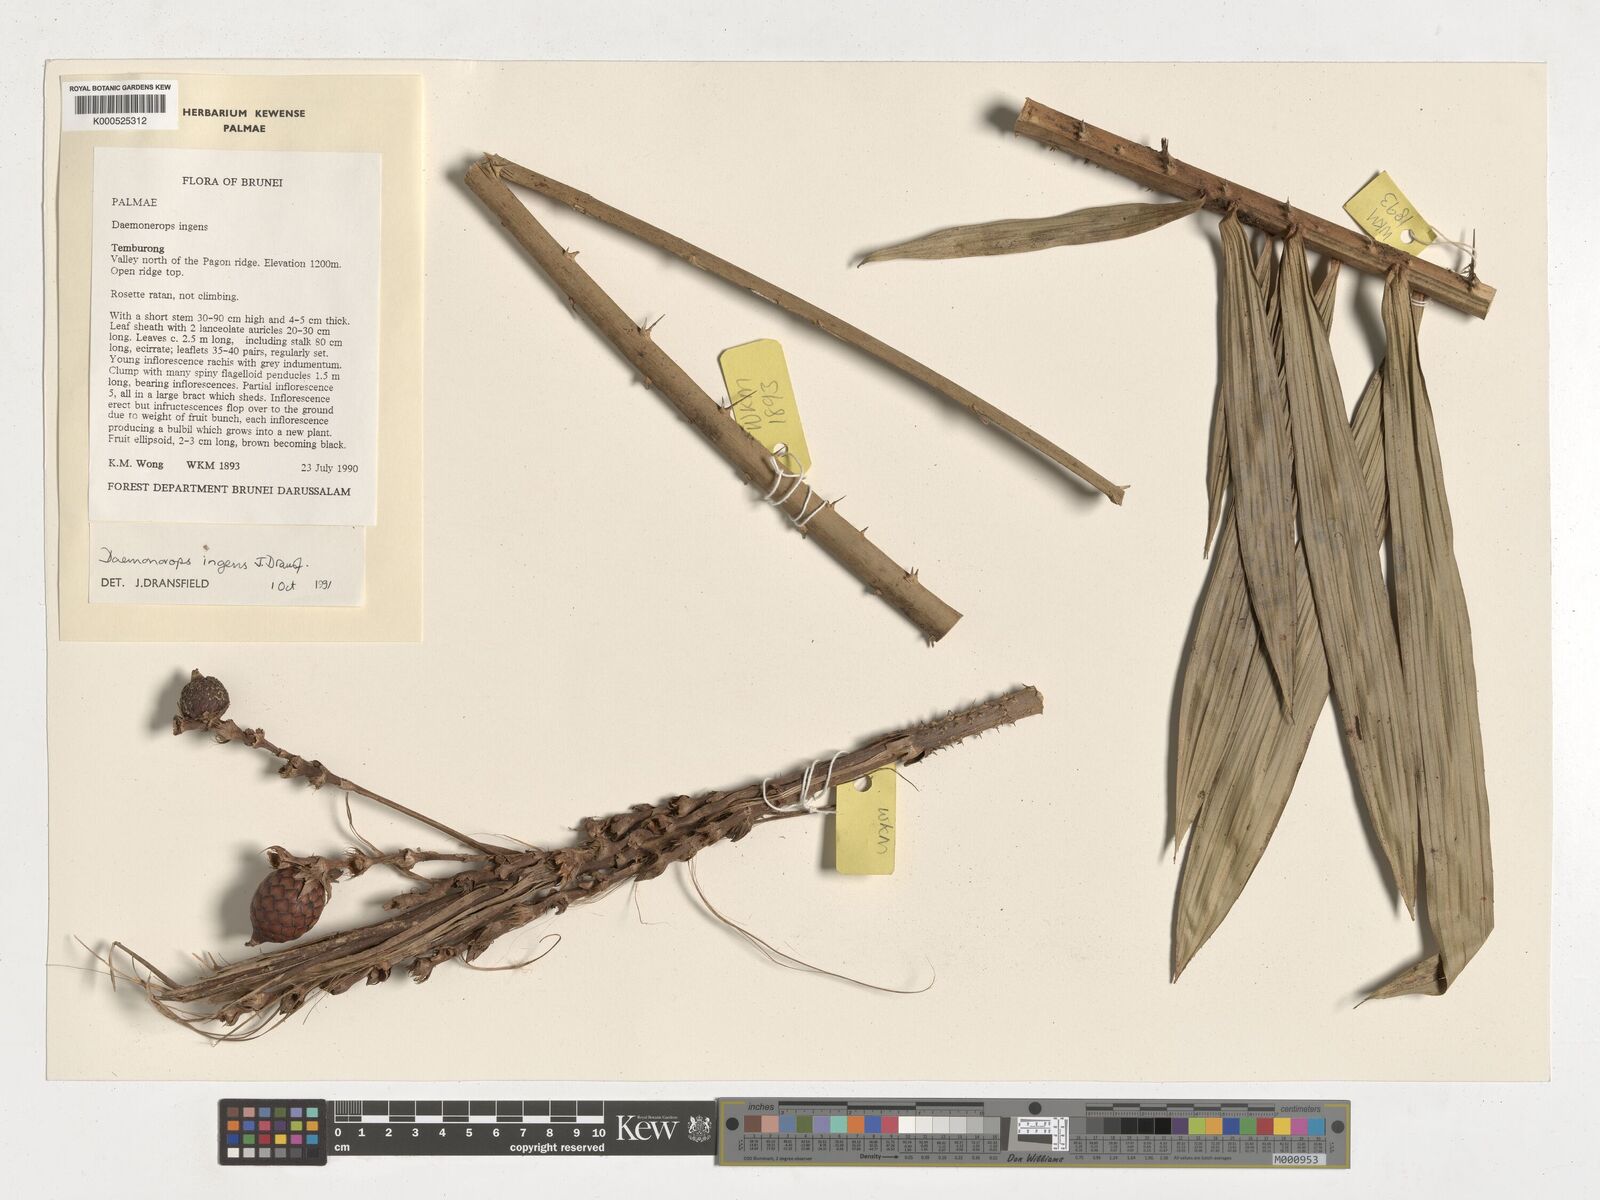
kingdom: Plantae
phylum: Tracheophyta
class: Liliopsida
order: Arecales
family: Arecaceae
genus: Calamus
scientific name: Calamus ingens
